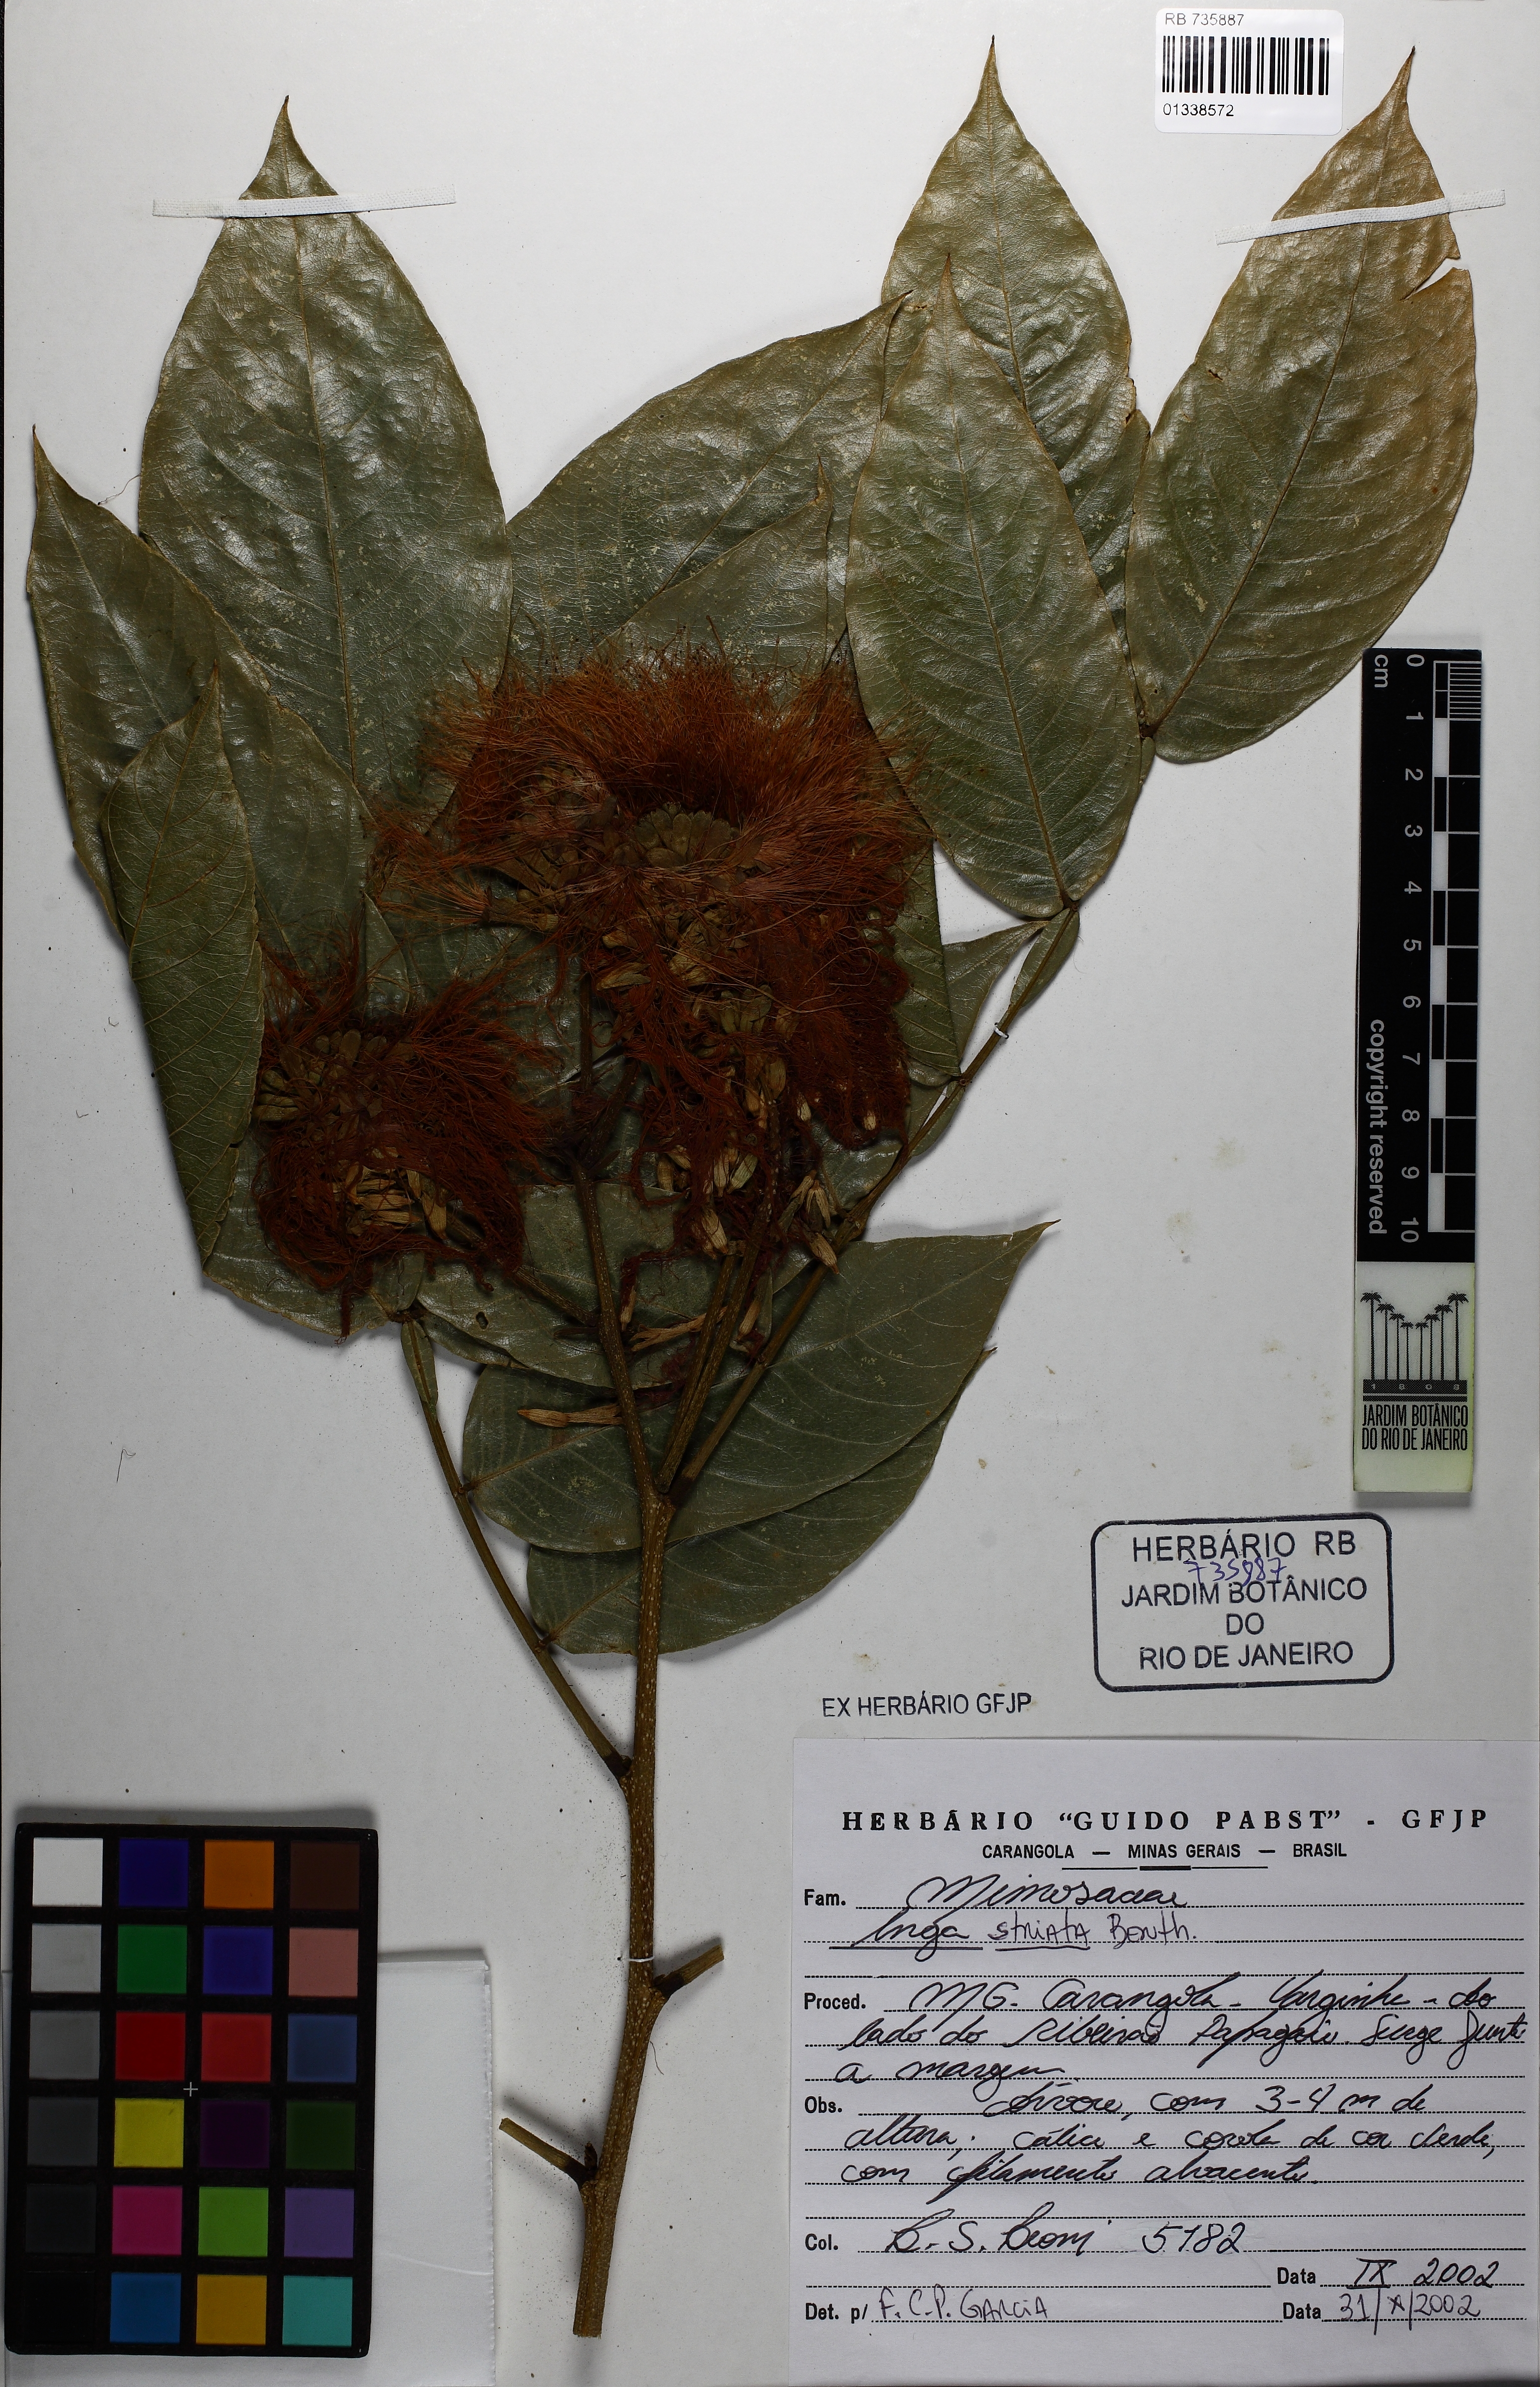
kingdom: Plantae
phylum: Tracheophyta
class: Magnoliopsida
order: Fabales
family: Fabaceae
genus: Inga
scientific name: Inga striata
